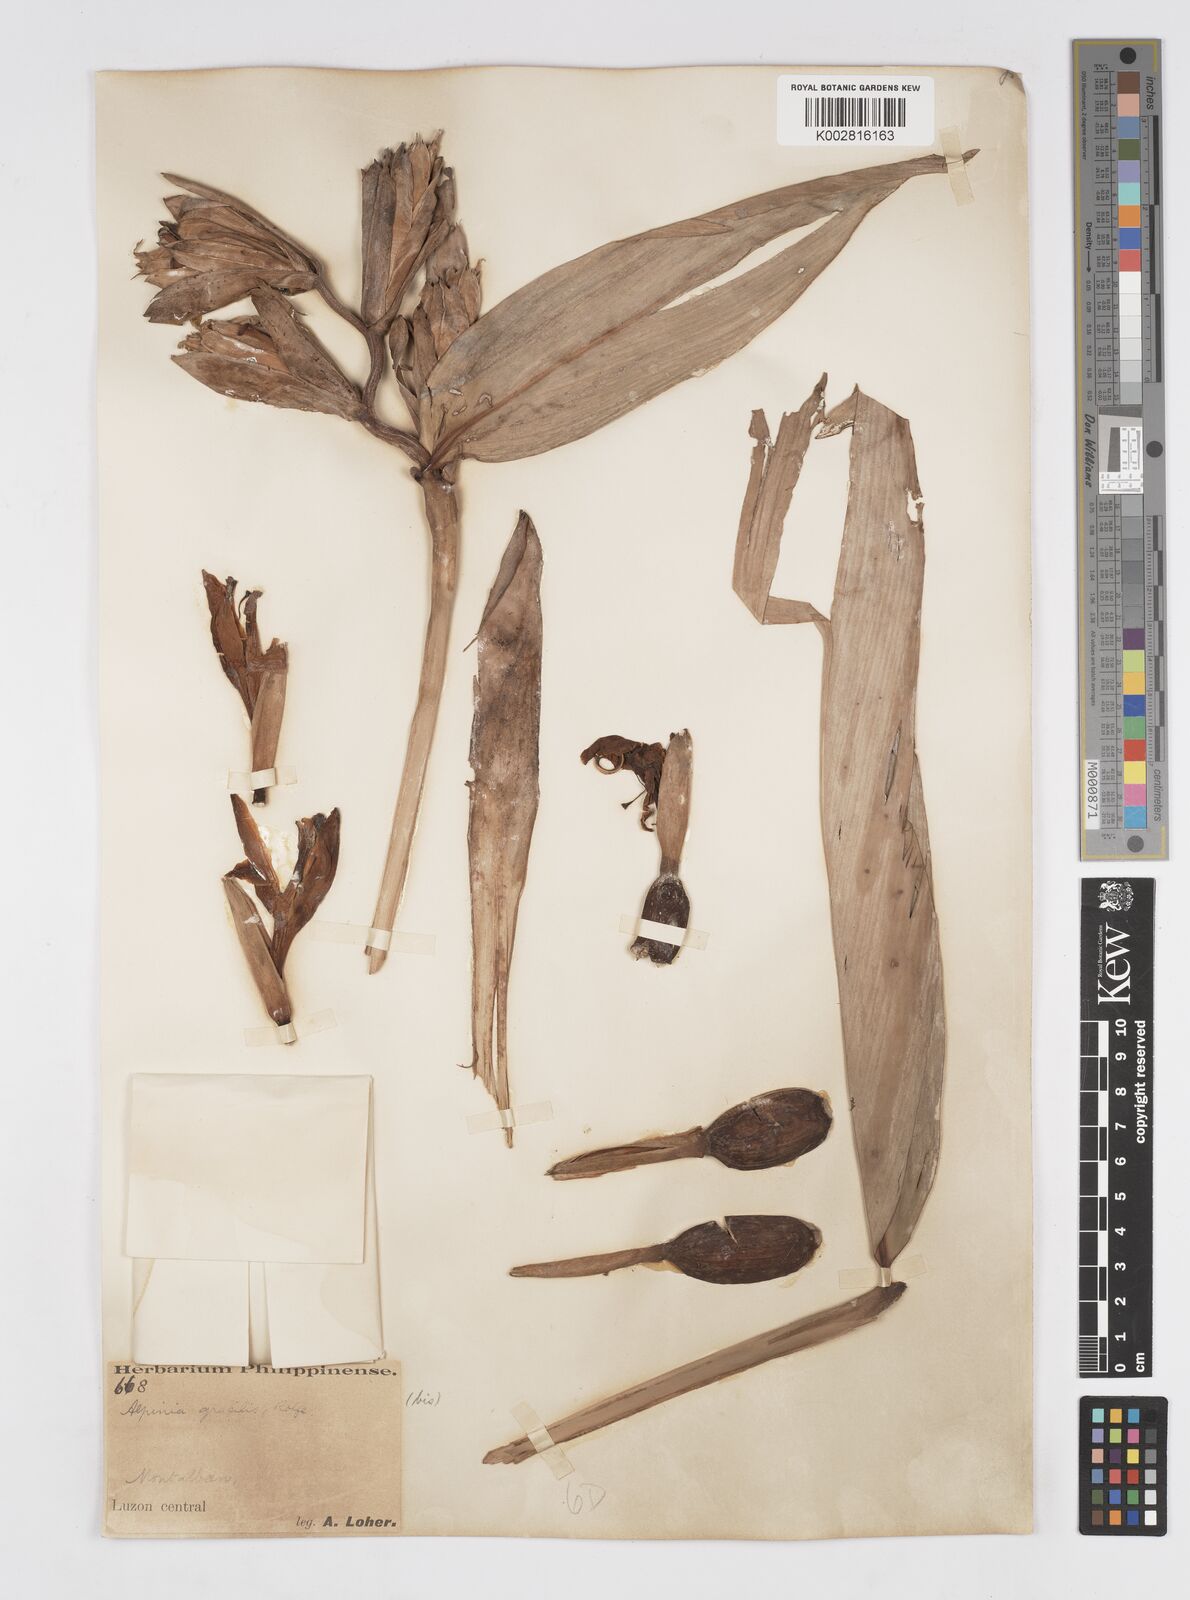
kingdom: Plantae
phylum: Tracheophyta
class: Liliopsida
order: Zingiberales
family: Zingiberaceae
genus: Alpinia
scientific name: Alpinia elegans
